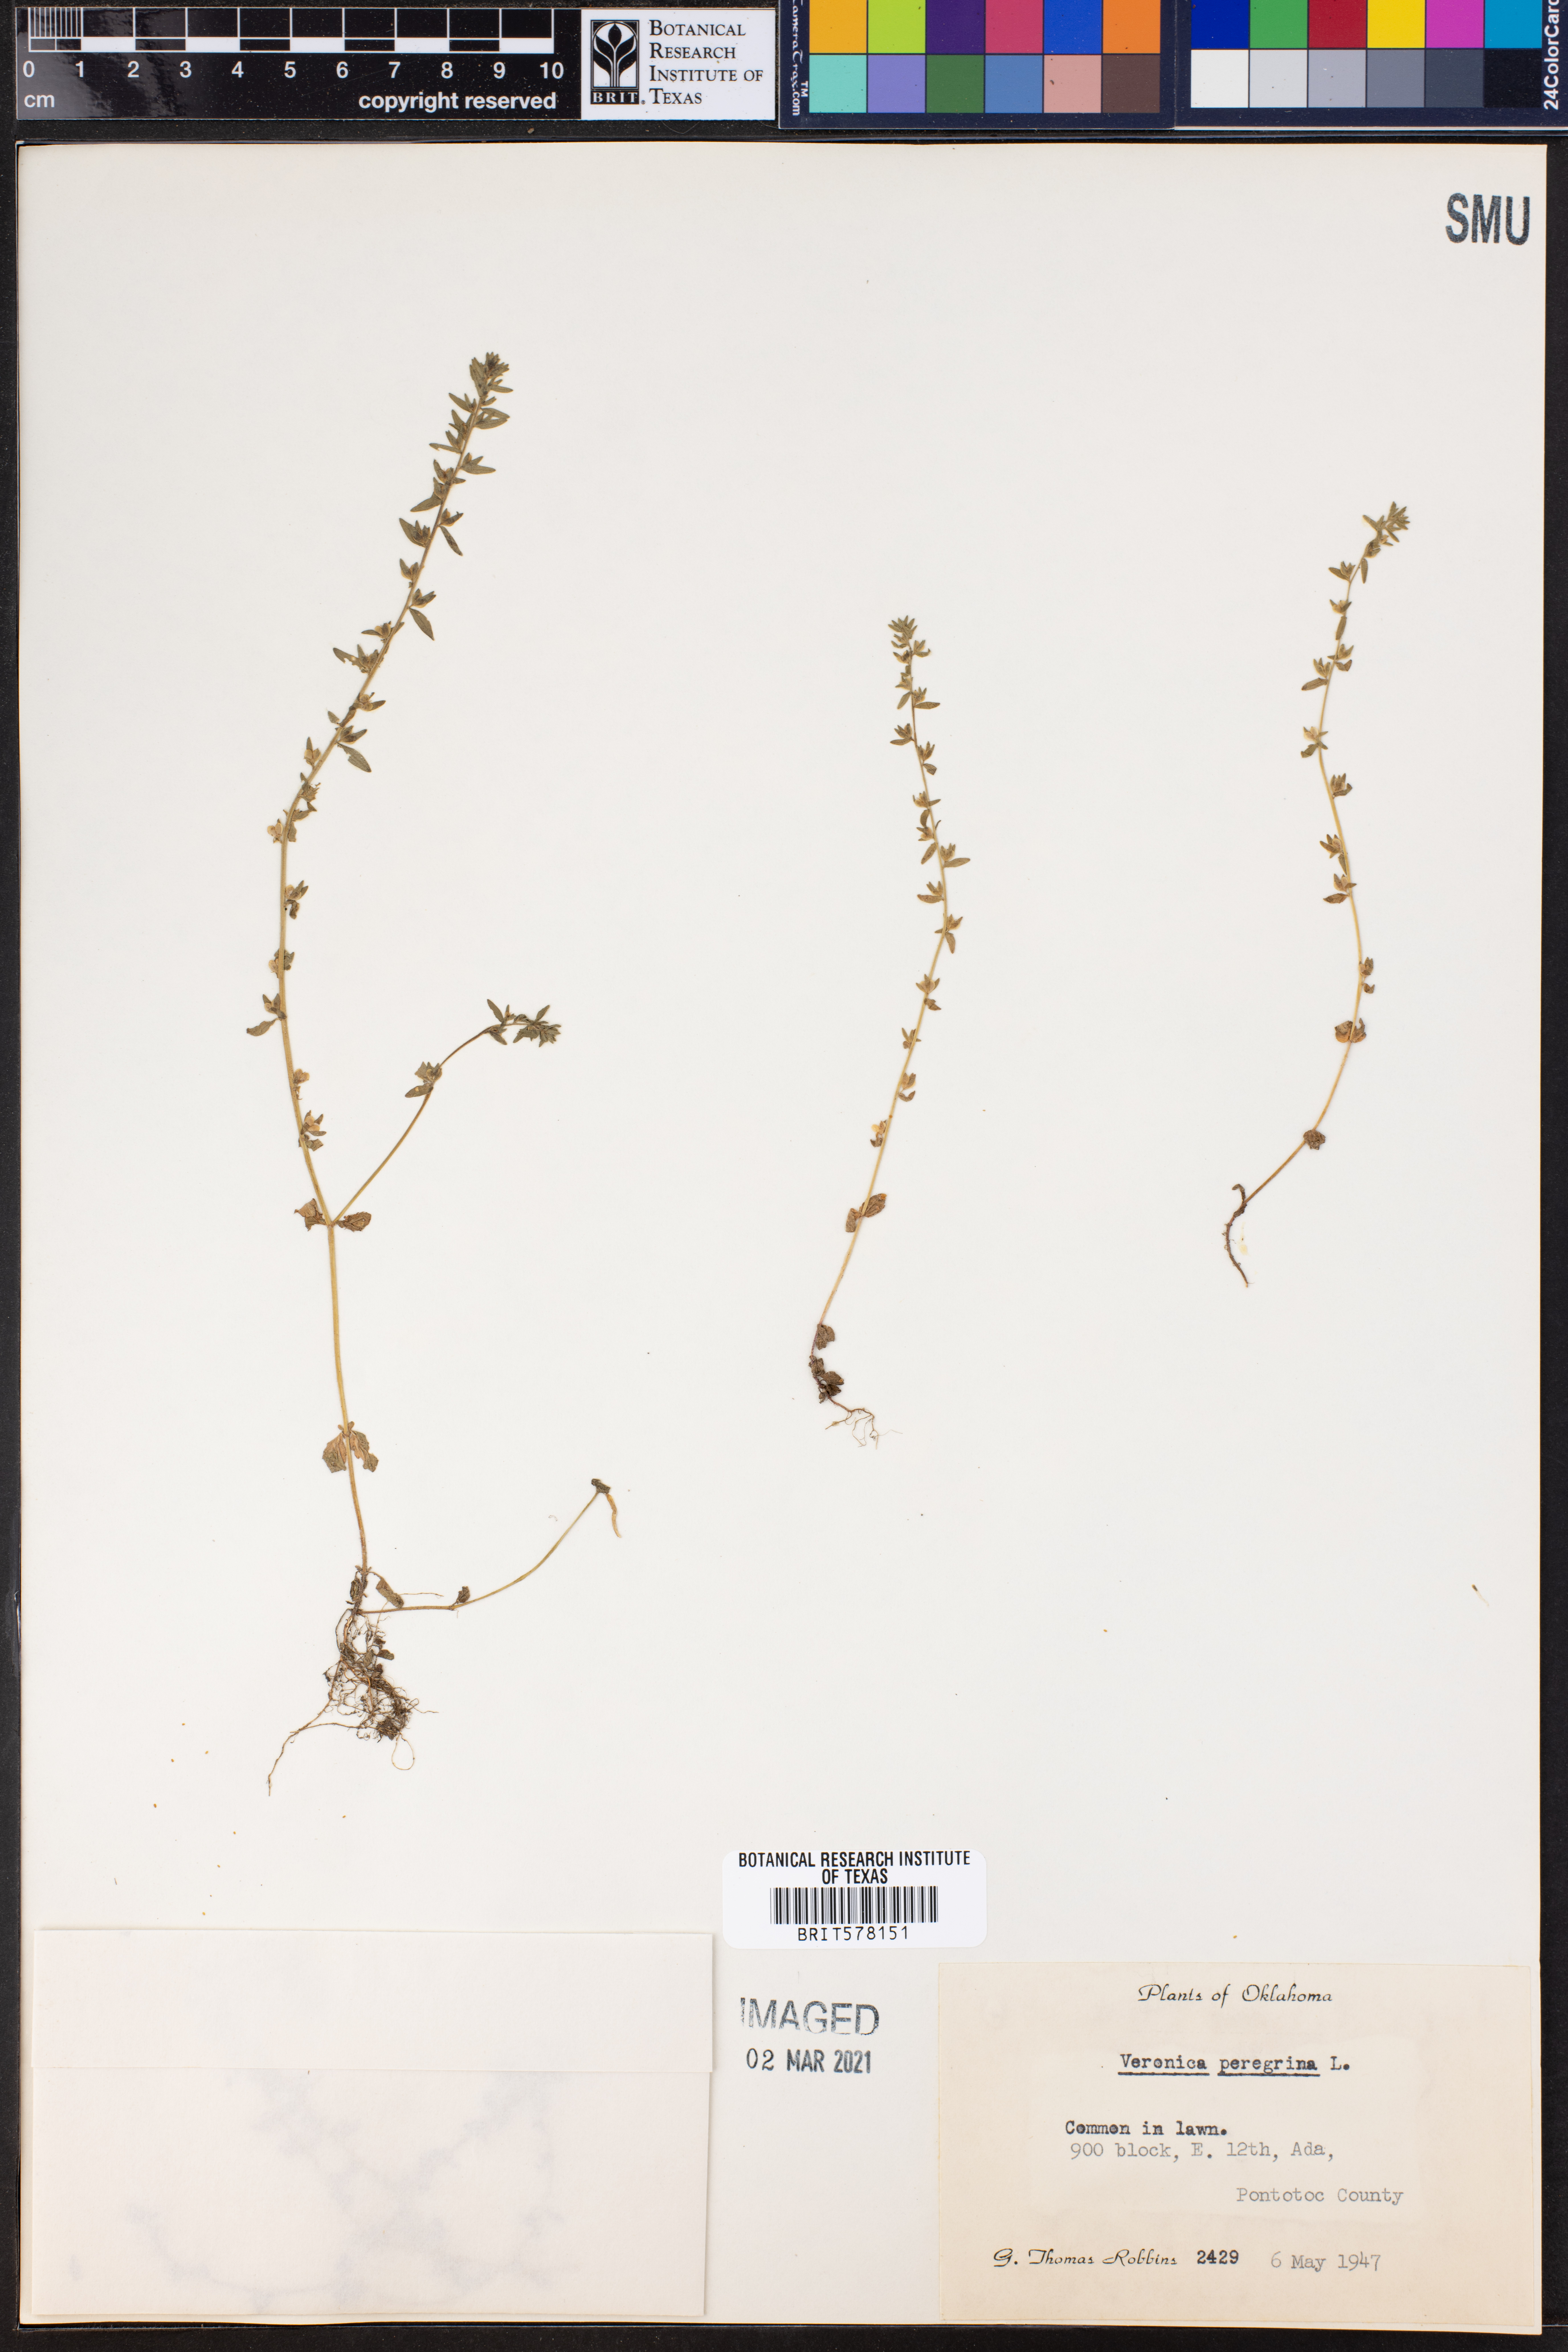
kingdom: Plantae
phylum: Tracheophyta
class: Magnoliopsida
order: Lamiales
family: Plantaginaceae
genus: Veronica
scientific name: Veronica peregrina
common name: Neckweed
